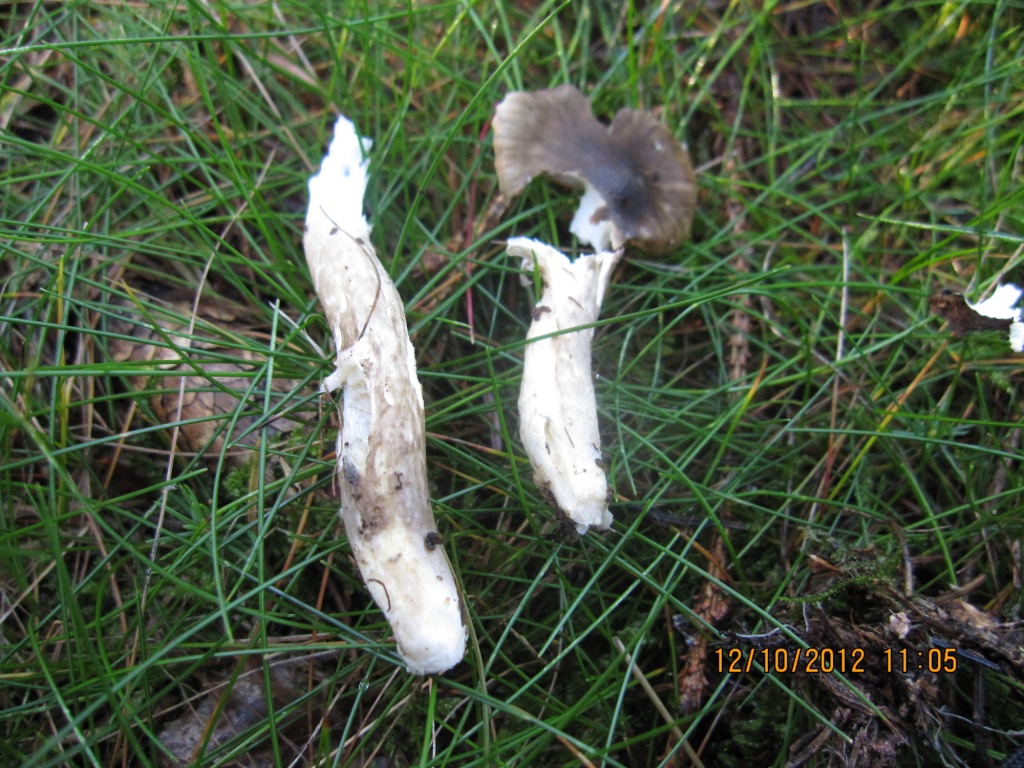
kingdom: Fungi
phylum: Basidiomycota
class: Agaricomycetes
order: Agaricales
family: Hygrophoraceae
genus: Hygrophorus
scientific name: Hygrophorus olivaceoalbus
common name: hvidbrun sneglehat
